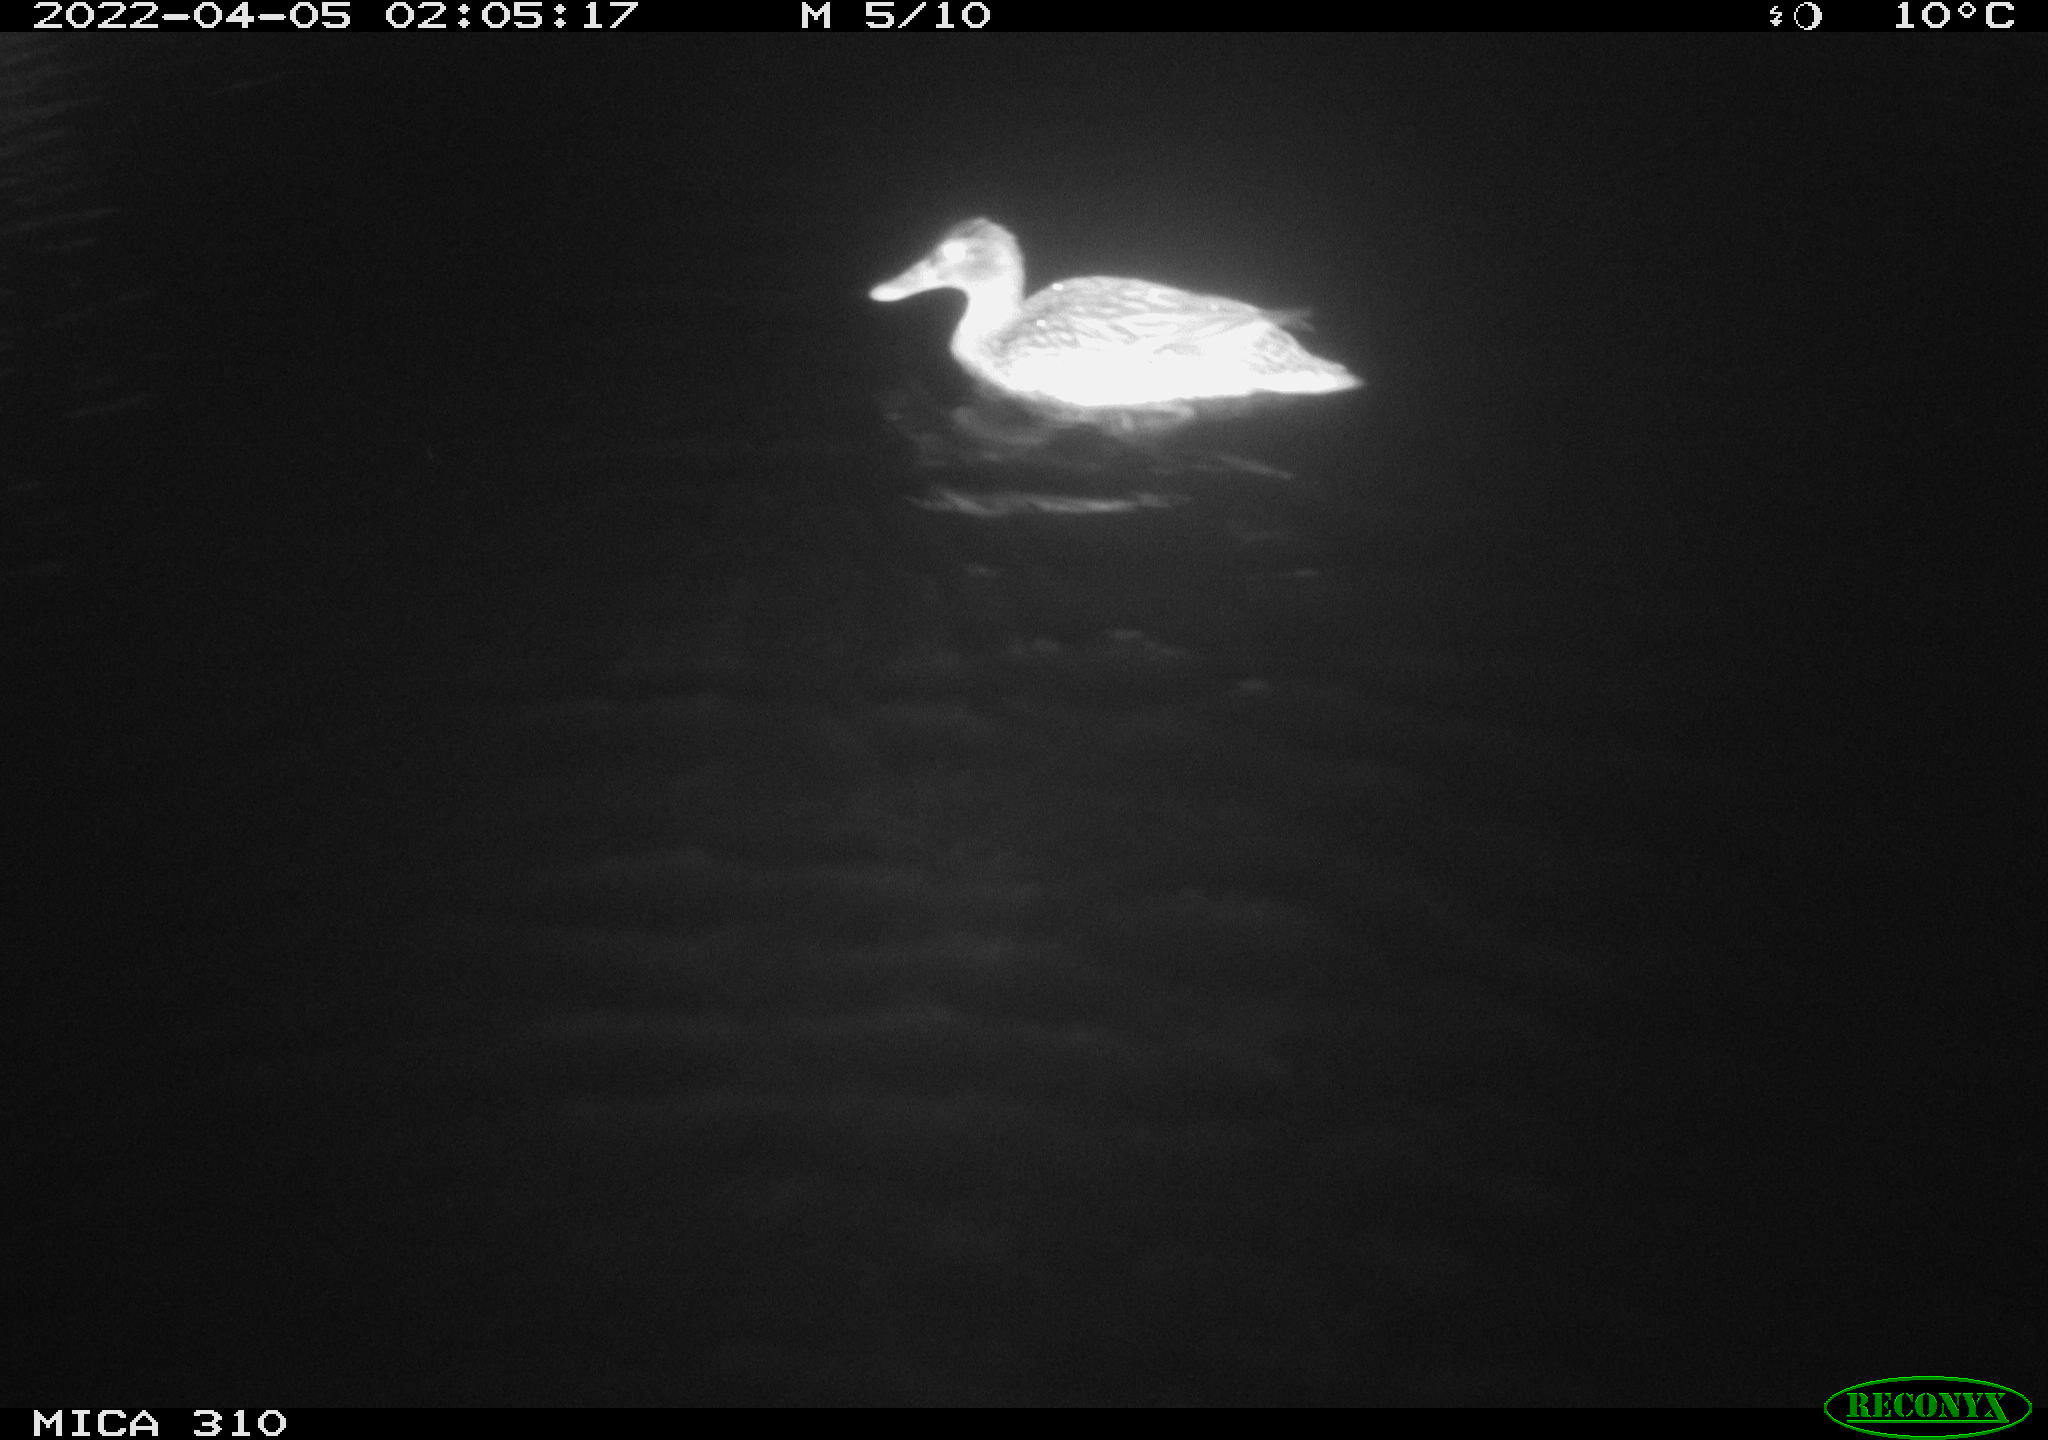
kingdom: Animalia
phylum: Chordata
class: Aves
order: Anseriformes
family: Anatidae
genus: Anas
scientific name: Anas platyrhynchos
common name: Mallard
